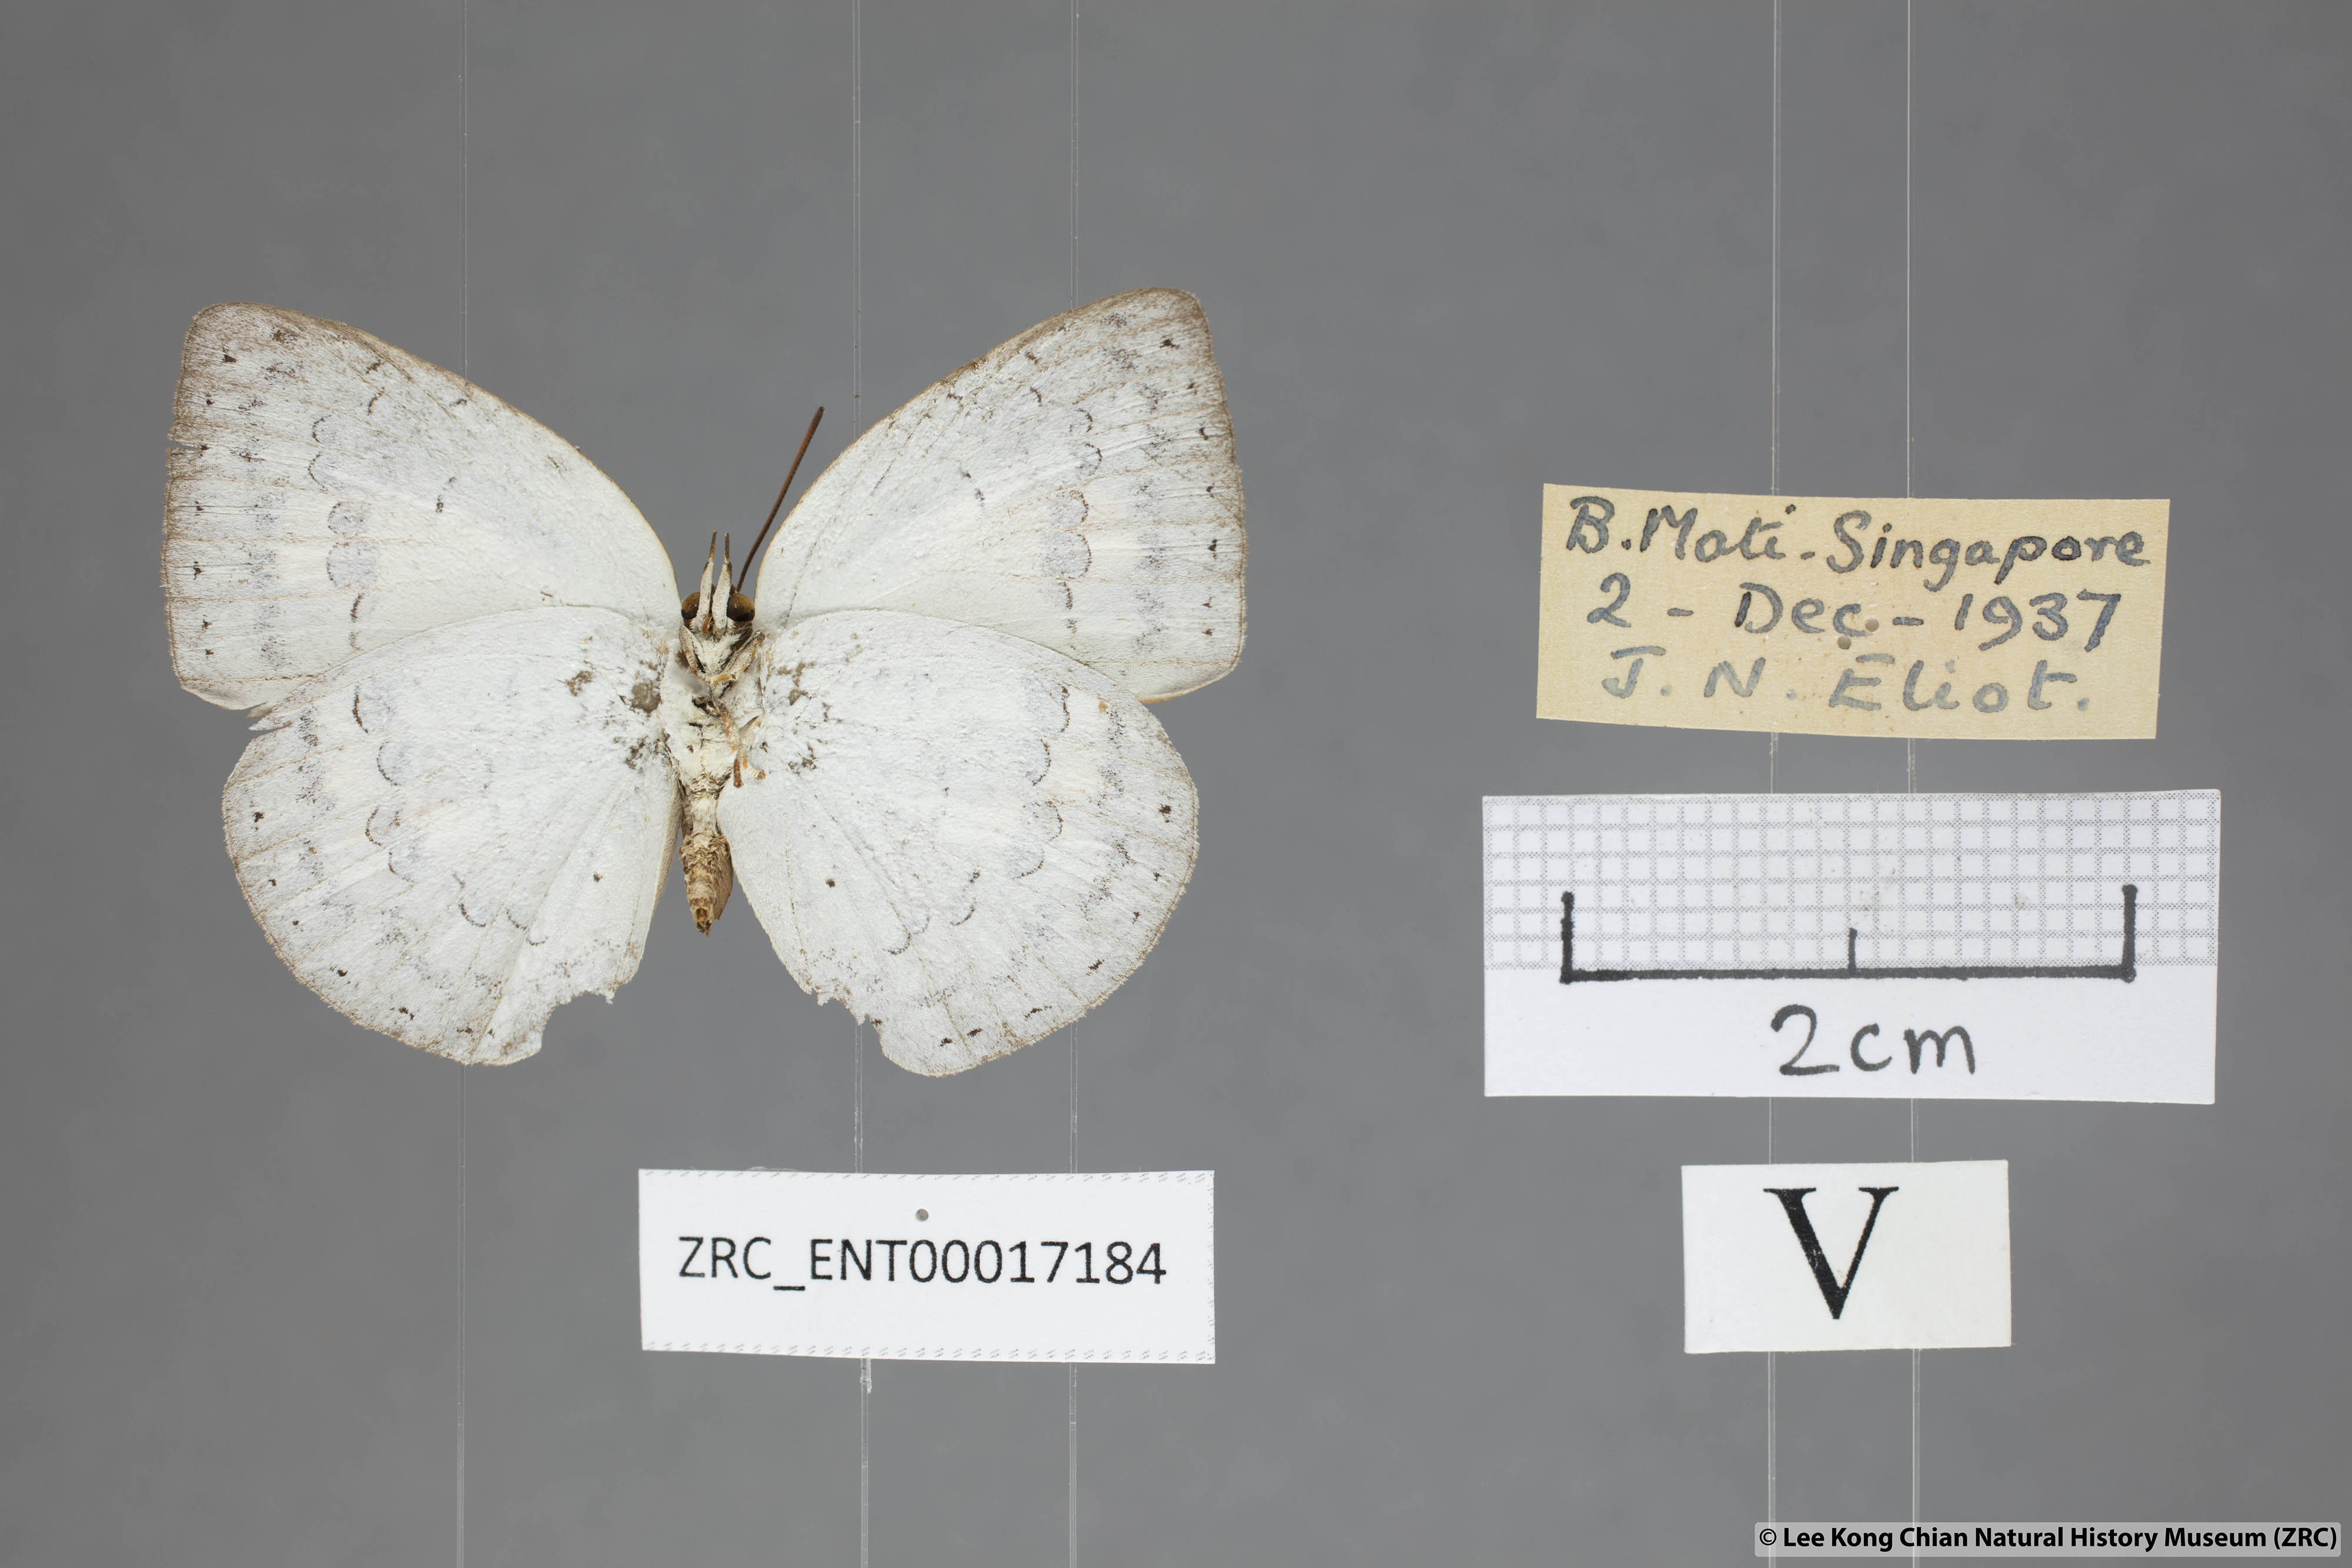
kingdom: Animalia
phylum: Arthropoda
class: Insecta
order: Lepidoptera
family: Lycaenidae
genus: Curetis
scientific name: Curetis saronis
